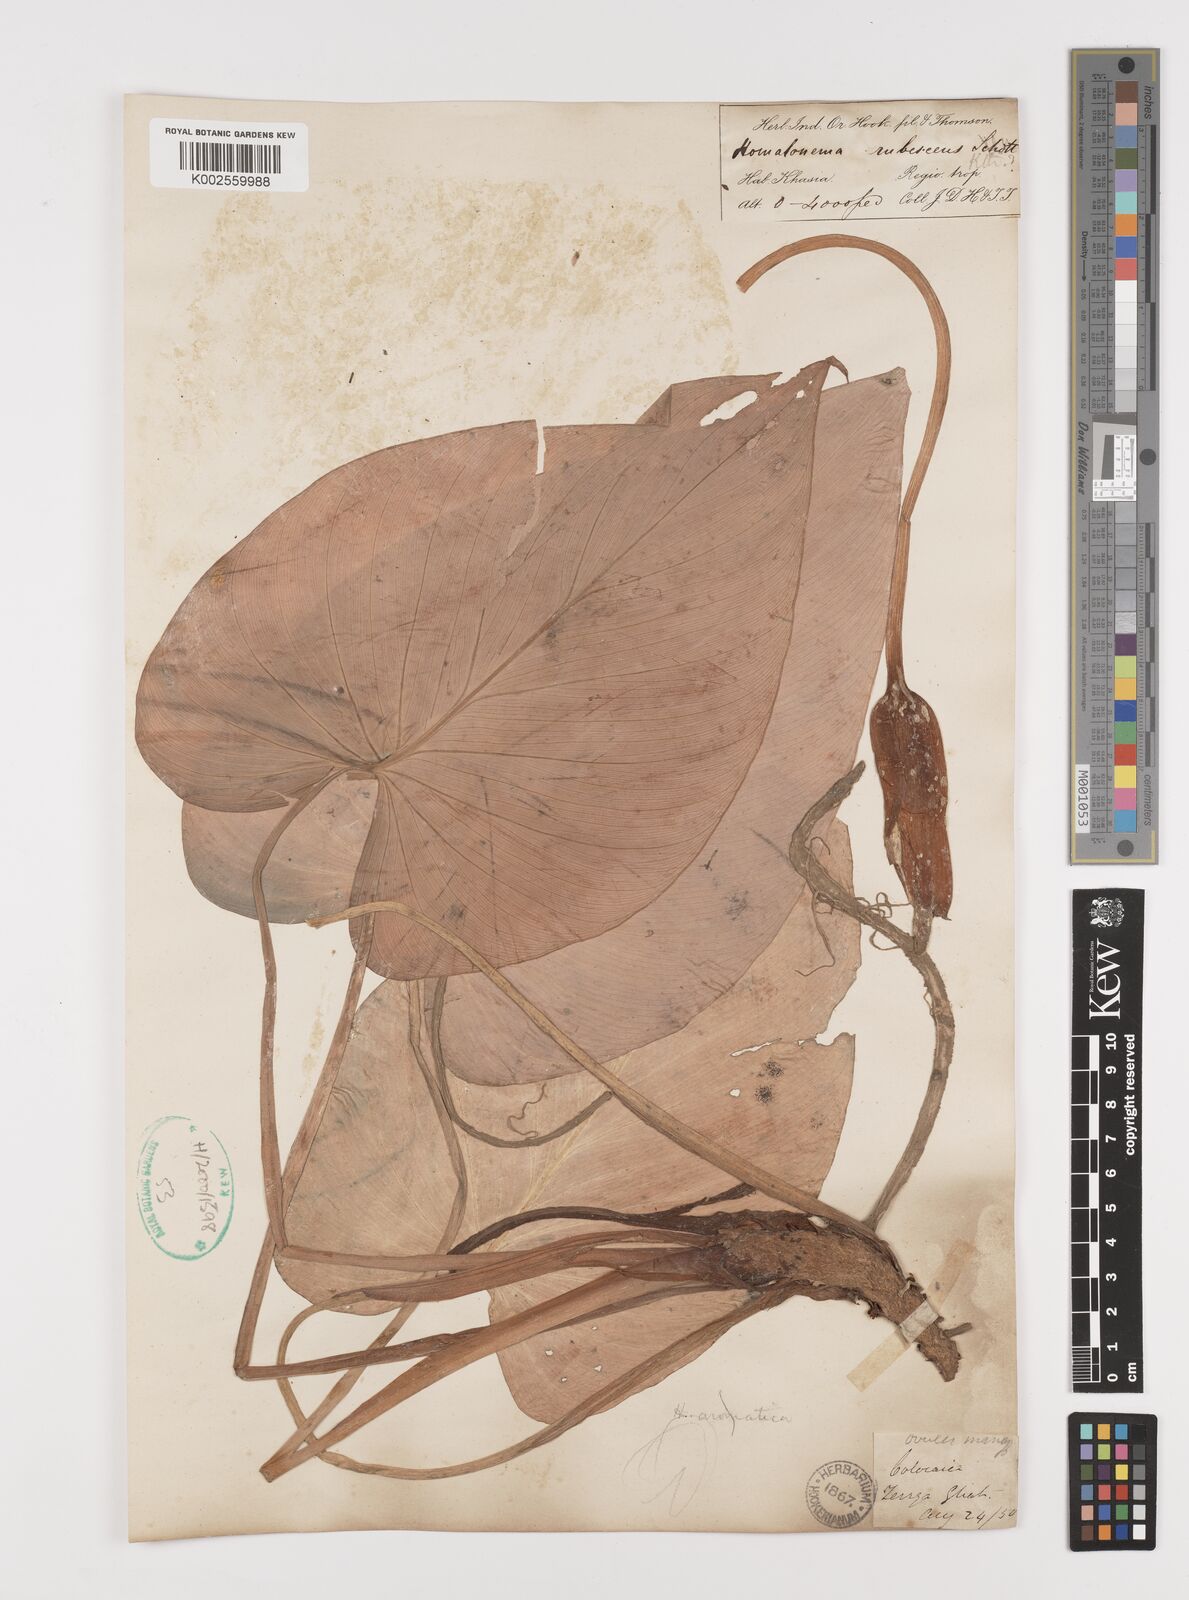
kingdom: Plantae
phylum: Tracheophyta
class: Liliopsida
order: Alismatales
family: Araceae
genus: Homalomena
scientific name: Homalomena rubescens
